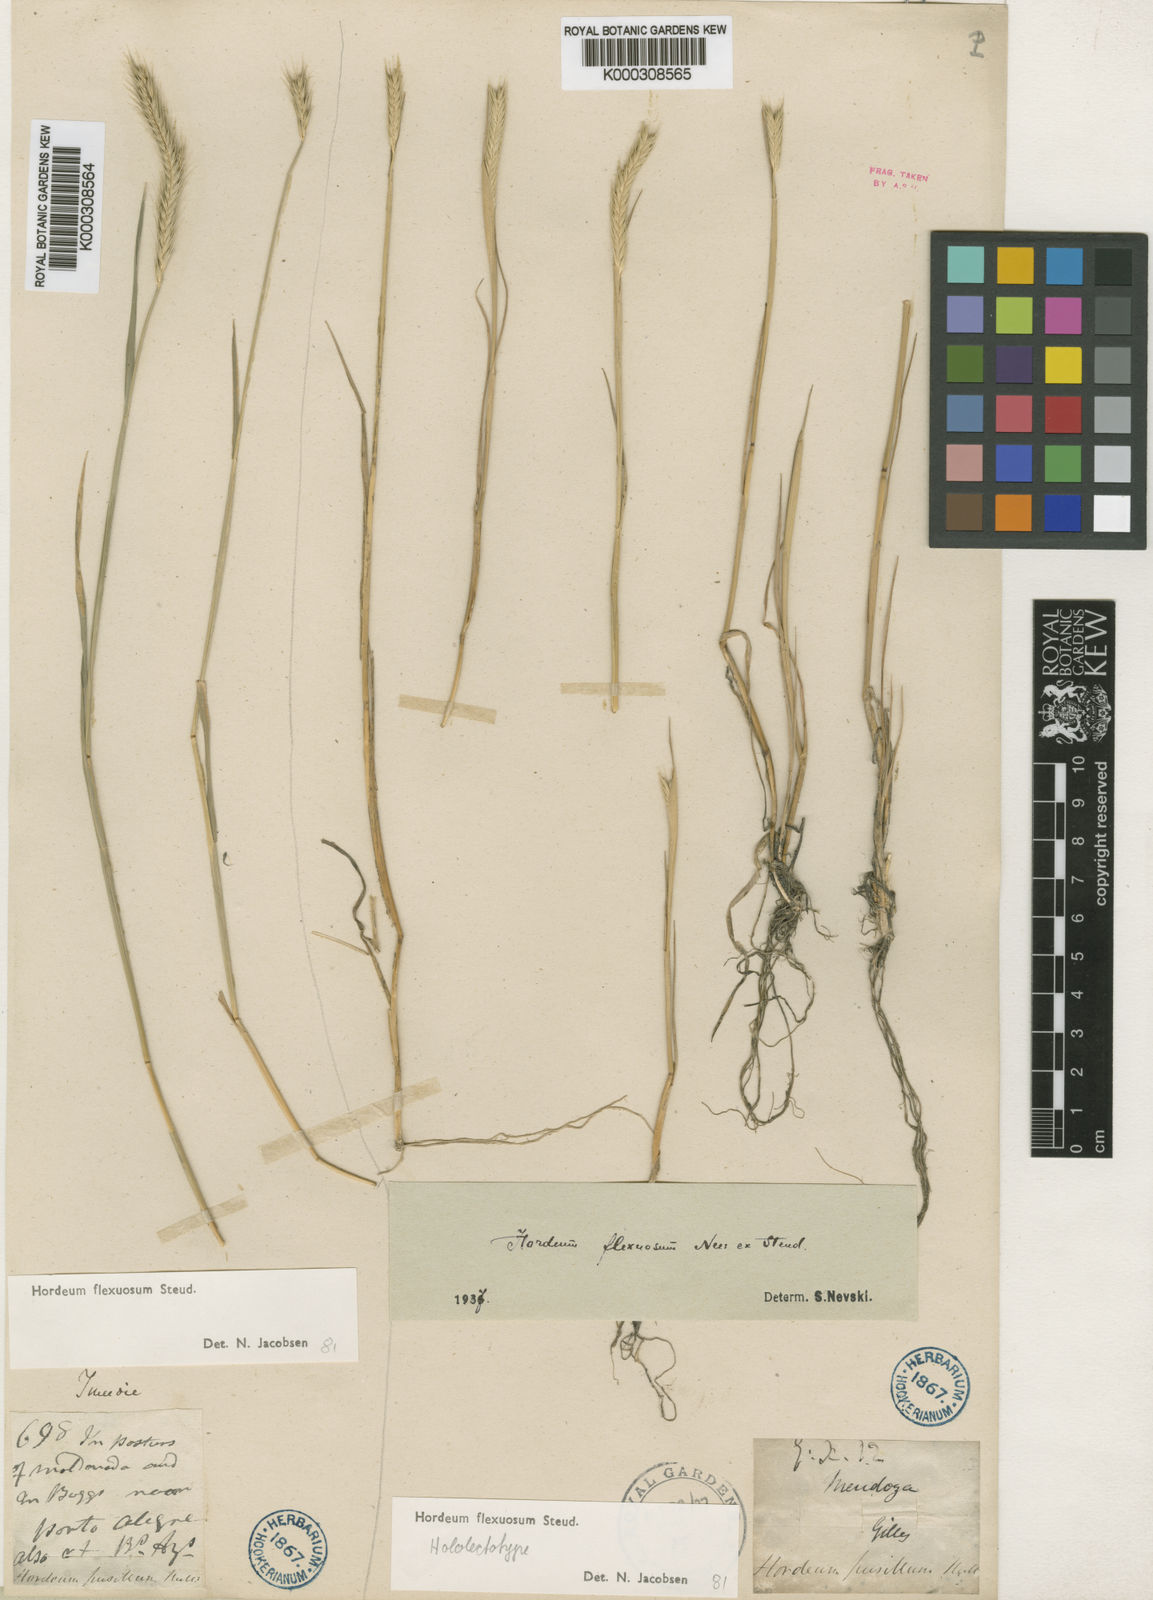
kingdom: Plantae
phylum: Tracheophyta
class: Liliopsida
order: Poales
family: Poaceae
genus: Hordeum
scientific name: Hordeum flexuosum
